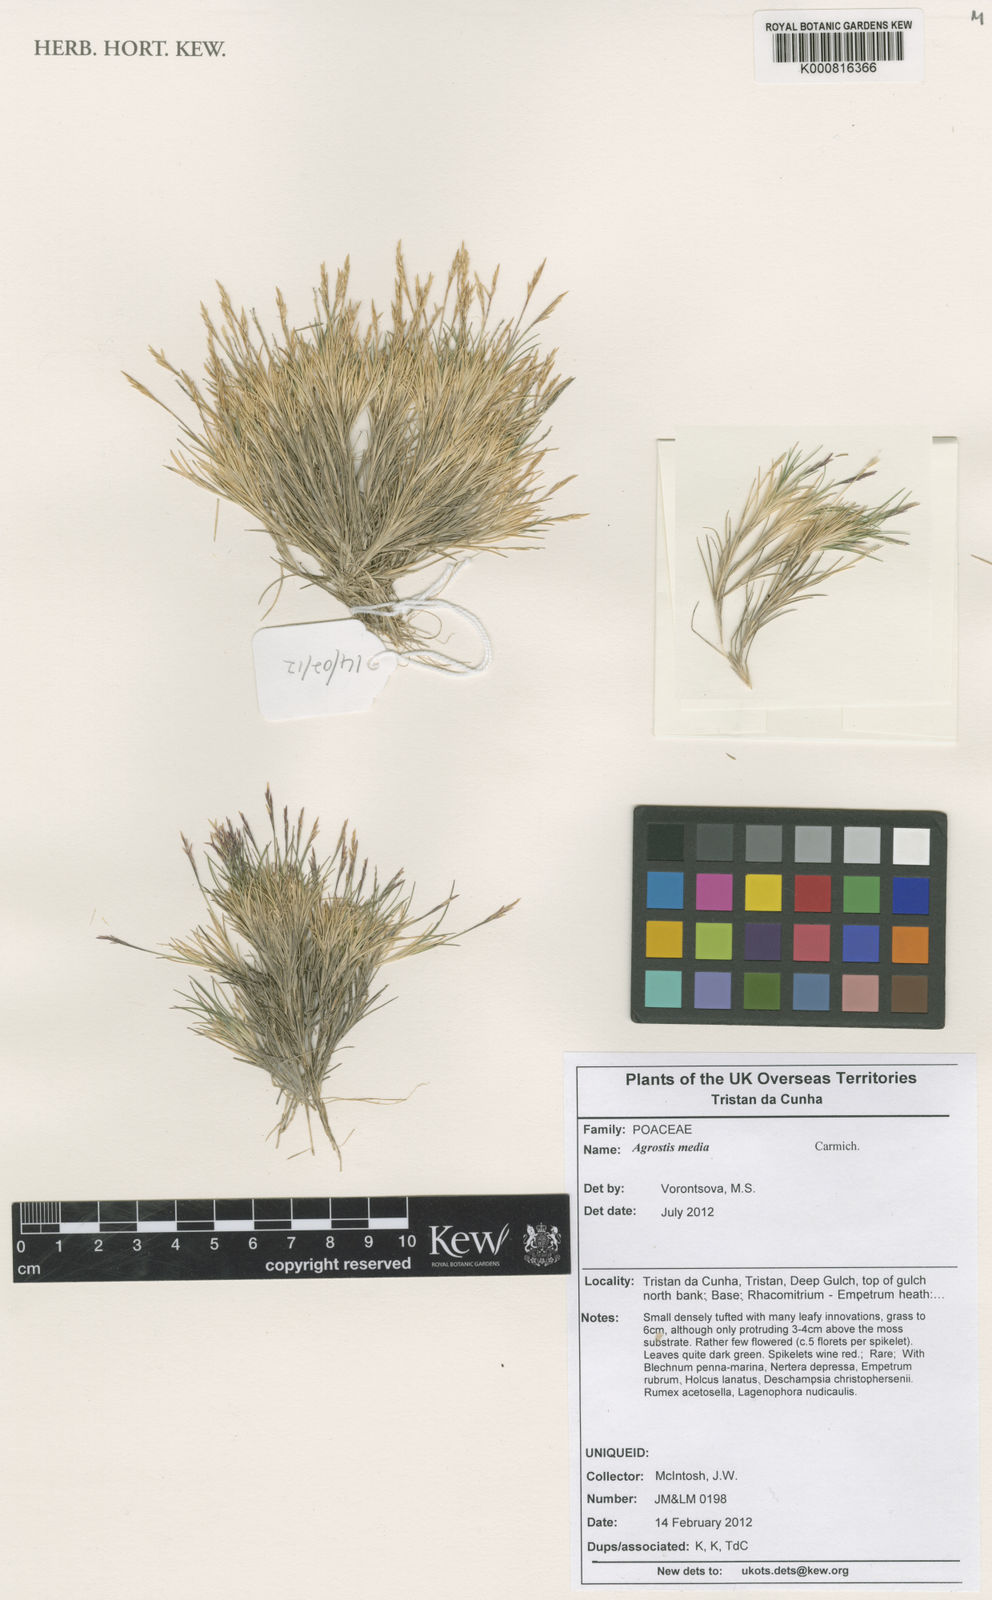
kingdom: Plantae
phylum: Tracheophyta
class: Liliopsida
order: Poales
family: Poaceae
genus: Agrostis
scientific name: Agrostis media
